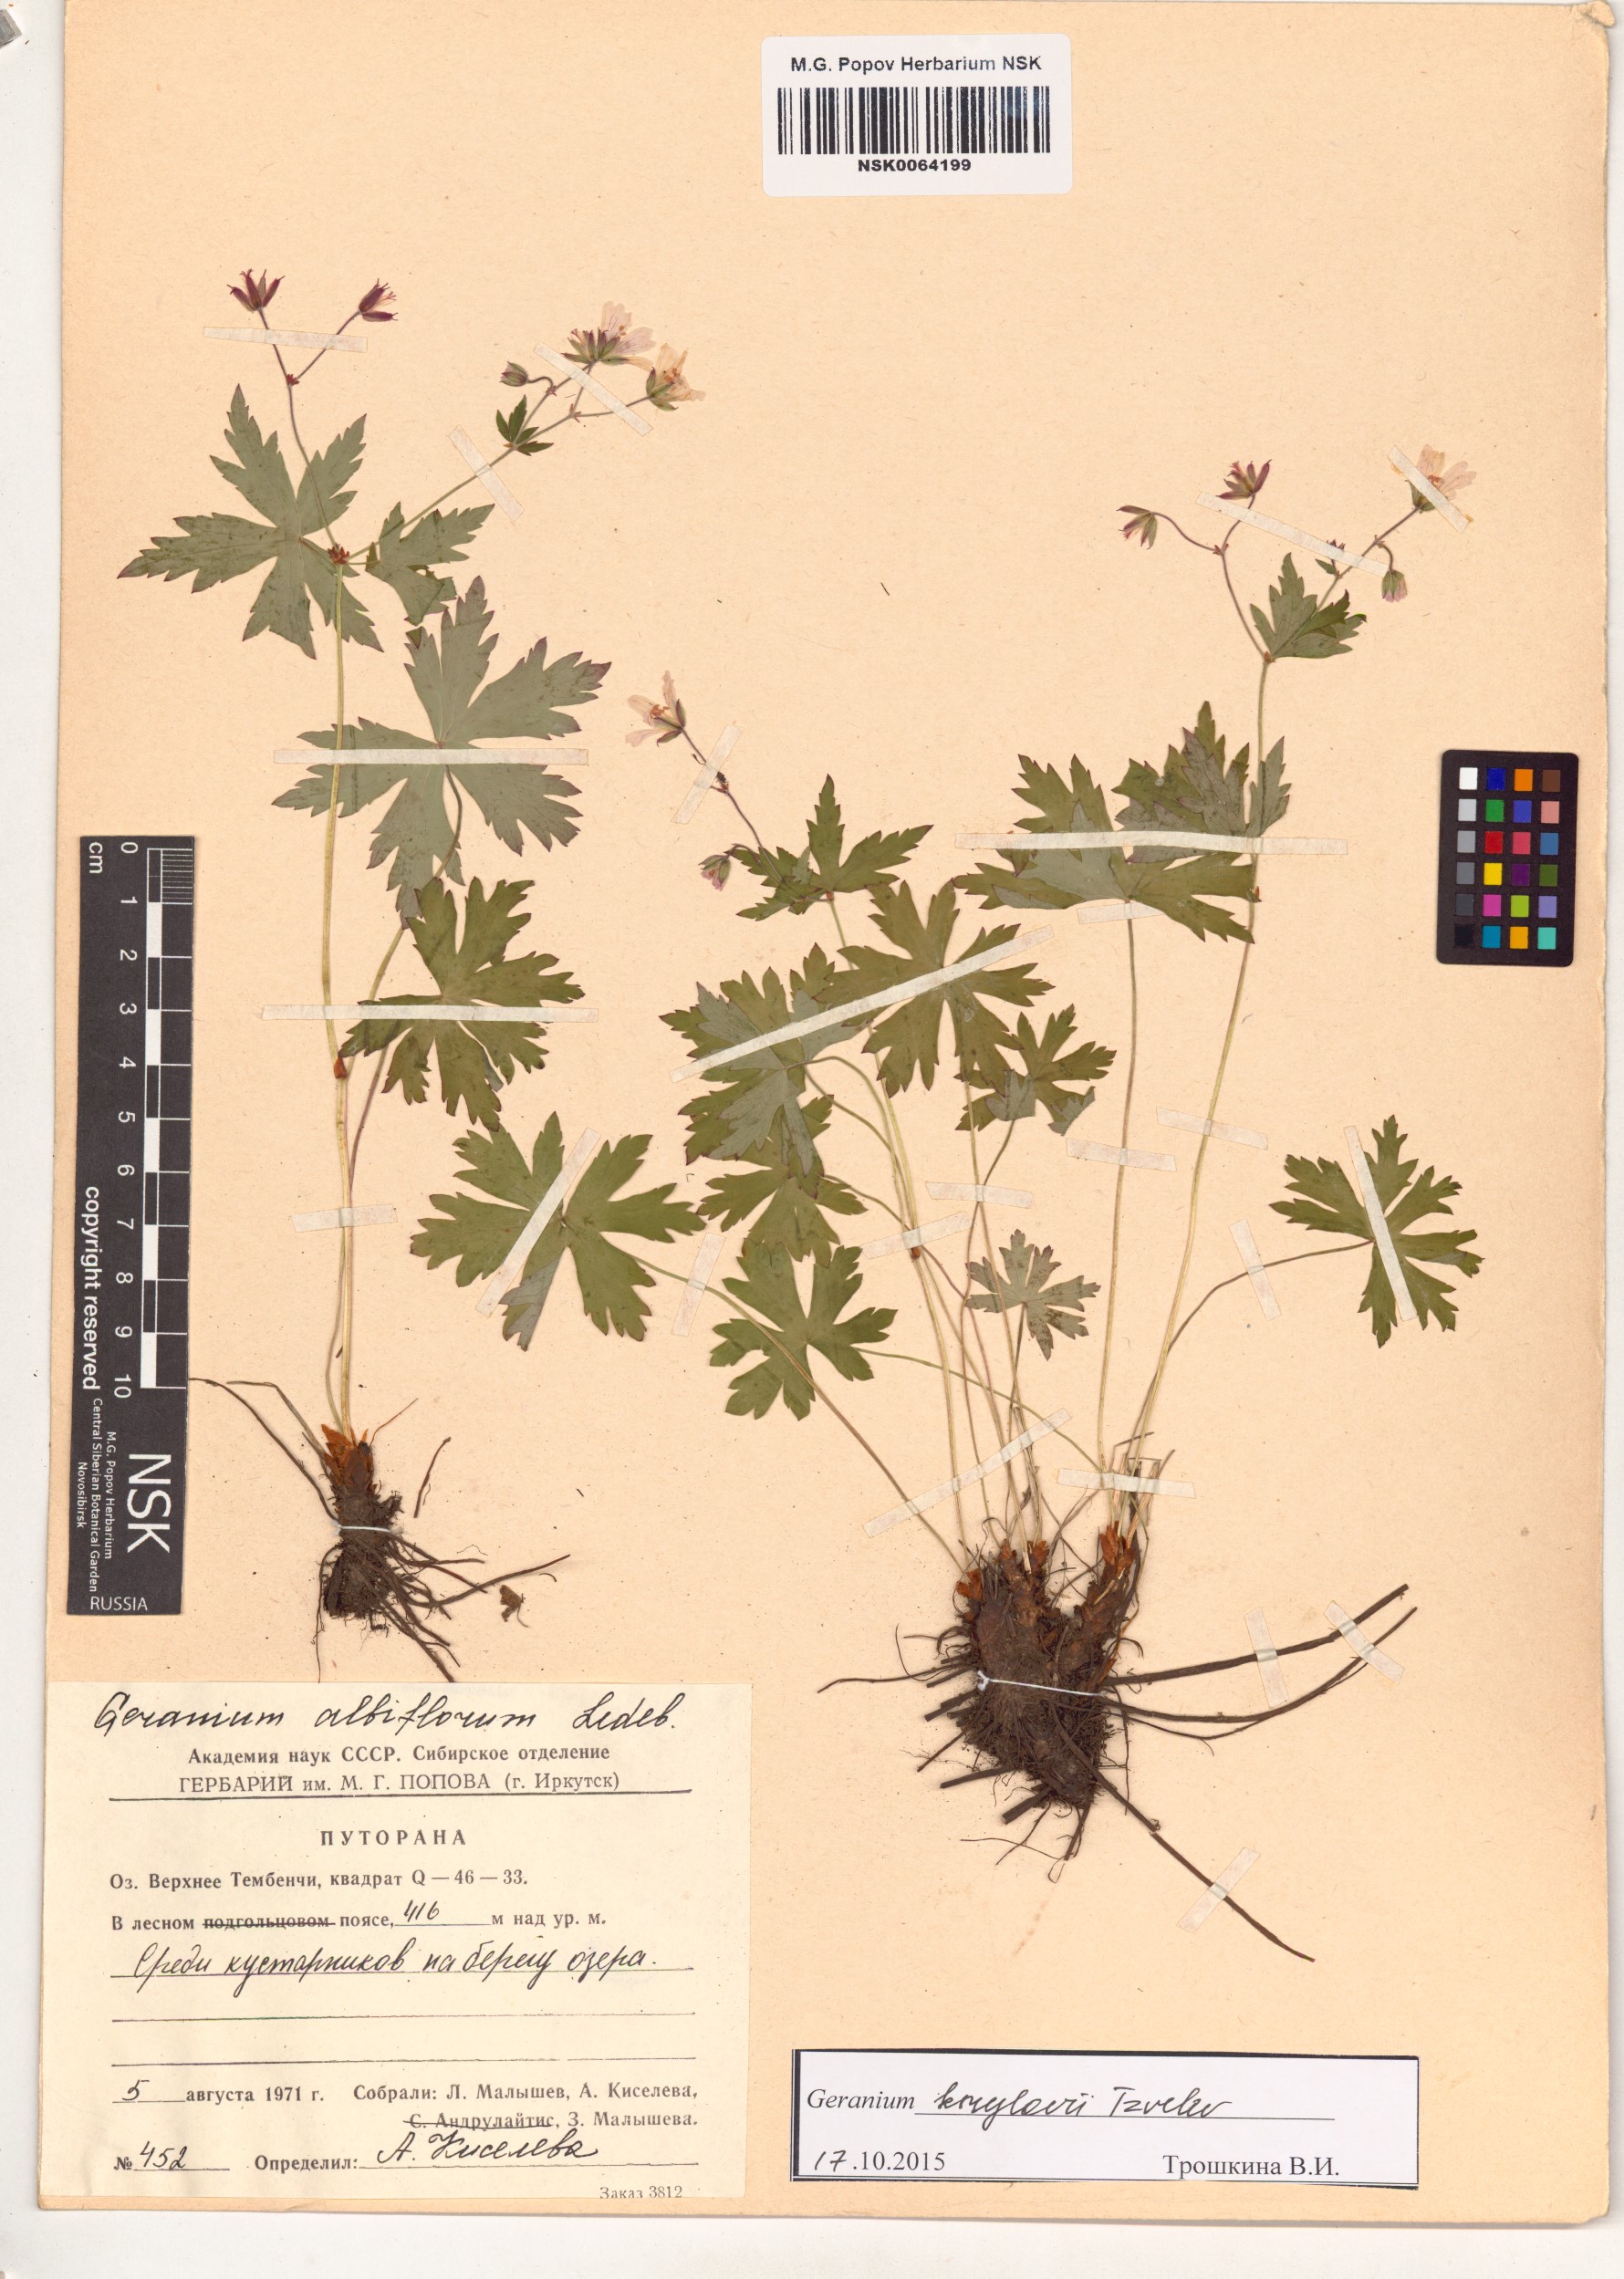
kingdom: Plantae
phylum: Tracheophyta
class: Magnoliopsida
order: Geraniales
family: Geraniaceae
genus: Geranium
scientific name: Geranium sylvaticum
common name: Wood crane's-bill
